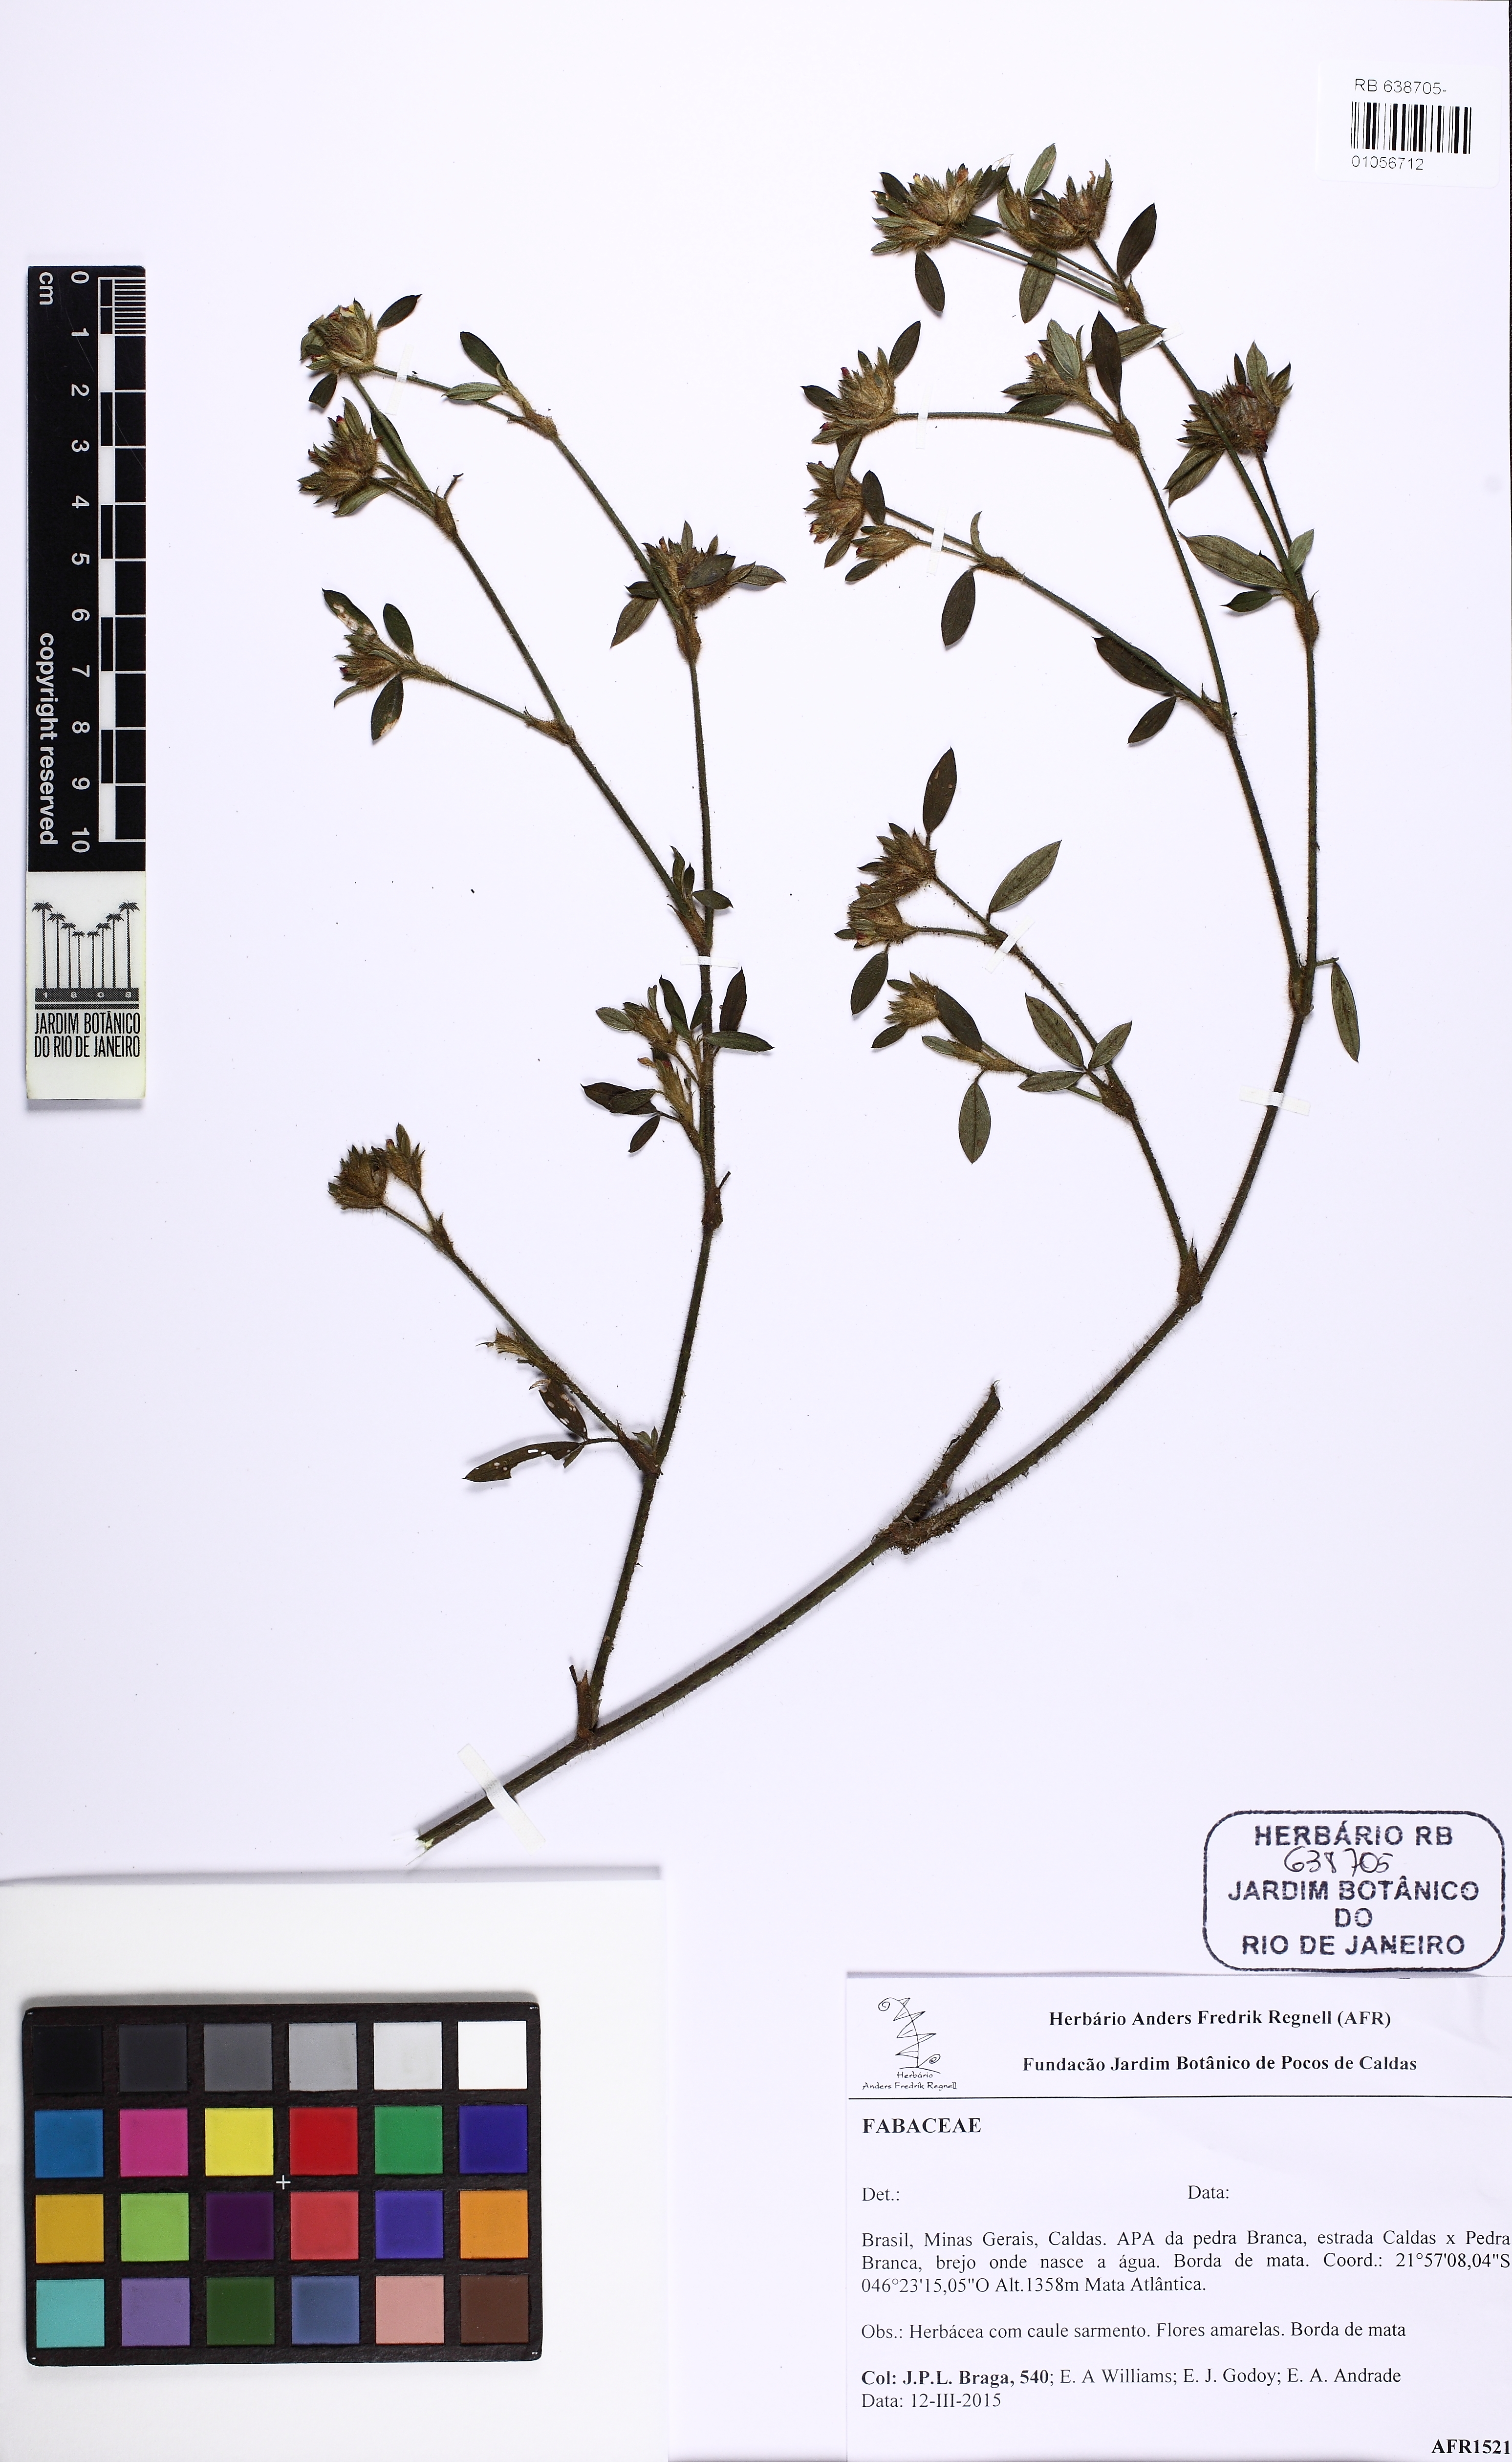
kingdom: Plantae
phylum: Tracheophyta
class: Magnoliopsida
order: Fabales
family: Fabaceae
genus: Stylosanthes
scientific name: Stylosanthes
